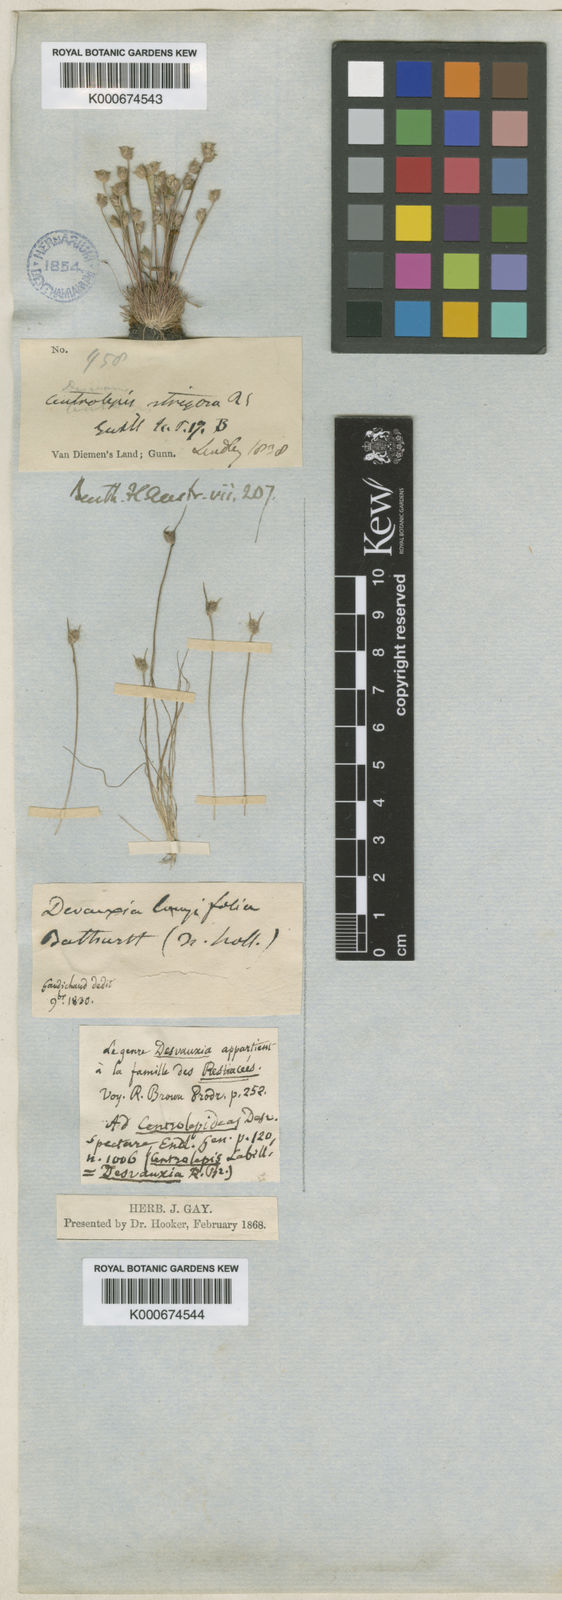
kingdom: Plantae
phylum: Tracheophyta
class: Liliopsida
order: Poales
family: Restionaceae
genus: Centrolepis
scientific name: Centrolepis fascicularis
